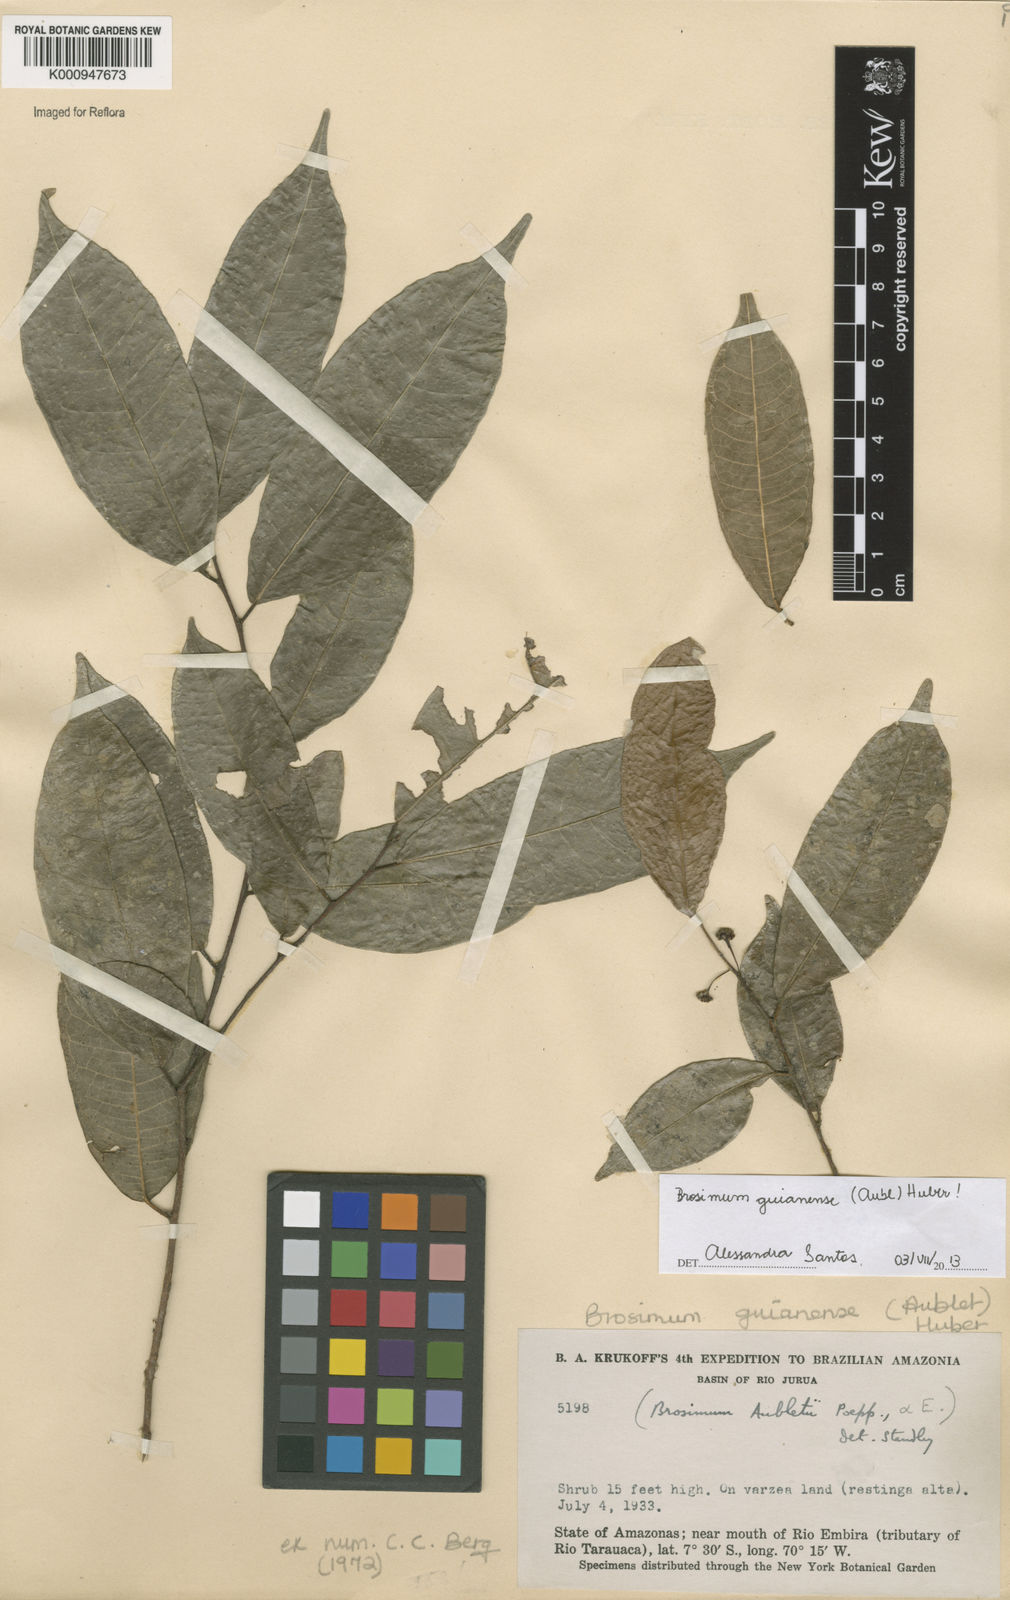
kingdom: Plantae
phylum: Tracheophyta
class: Magnoliopsida
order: Rosales
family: Moraceae
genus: Brosimum
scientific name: Brosimum
